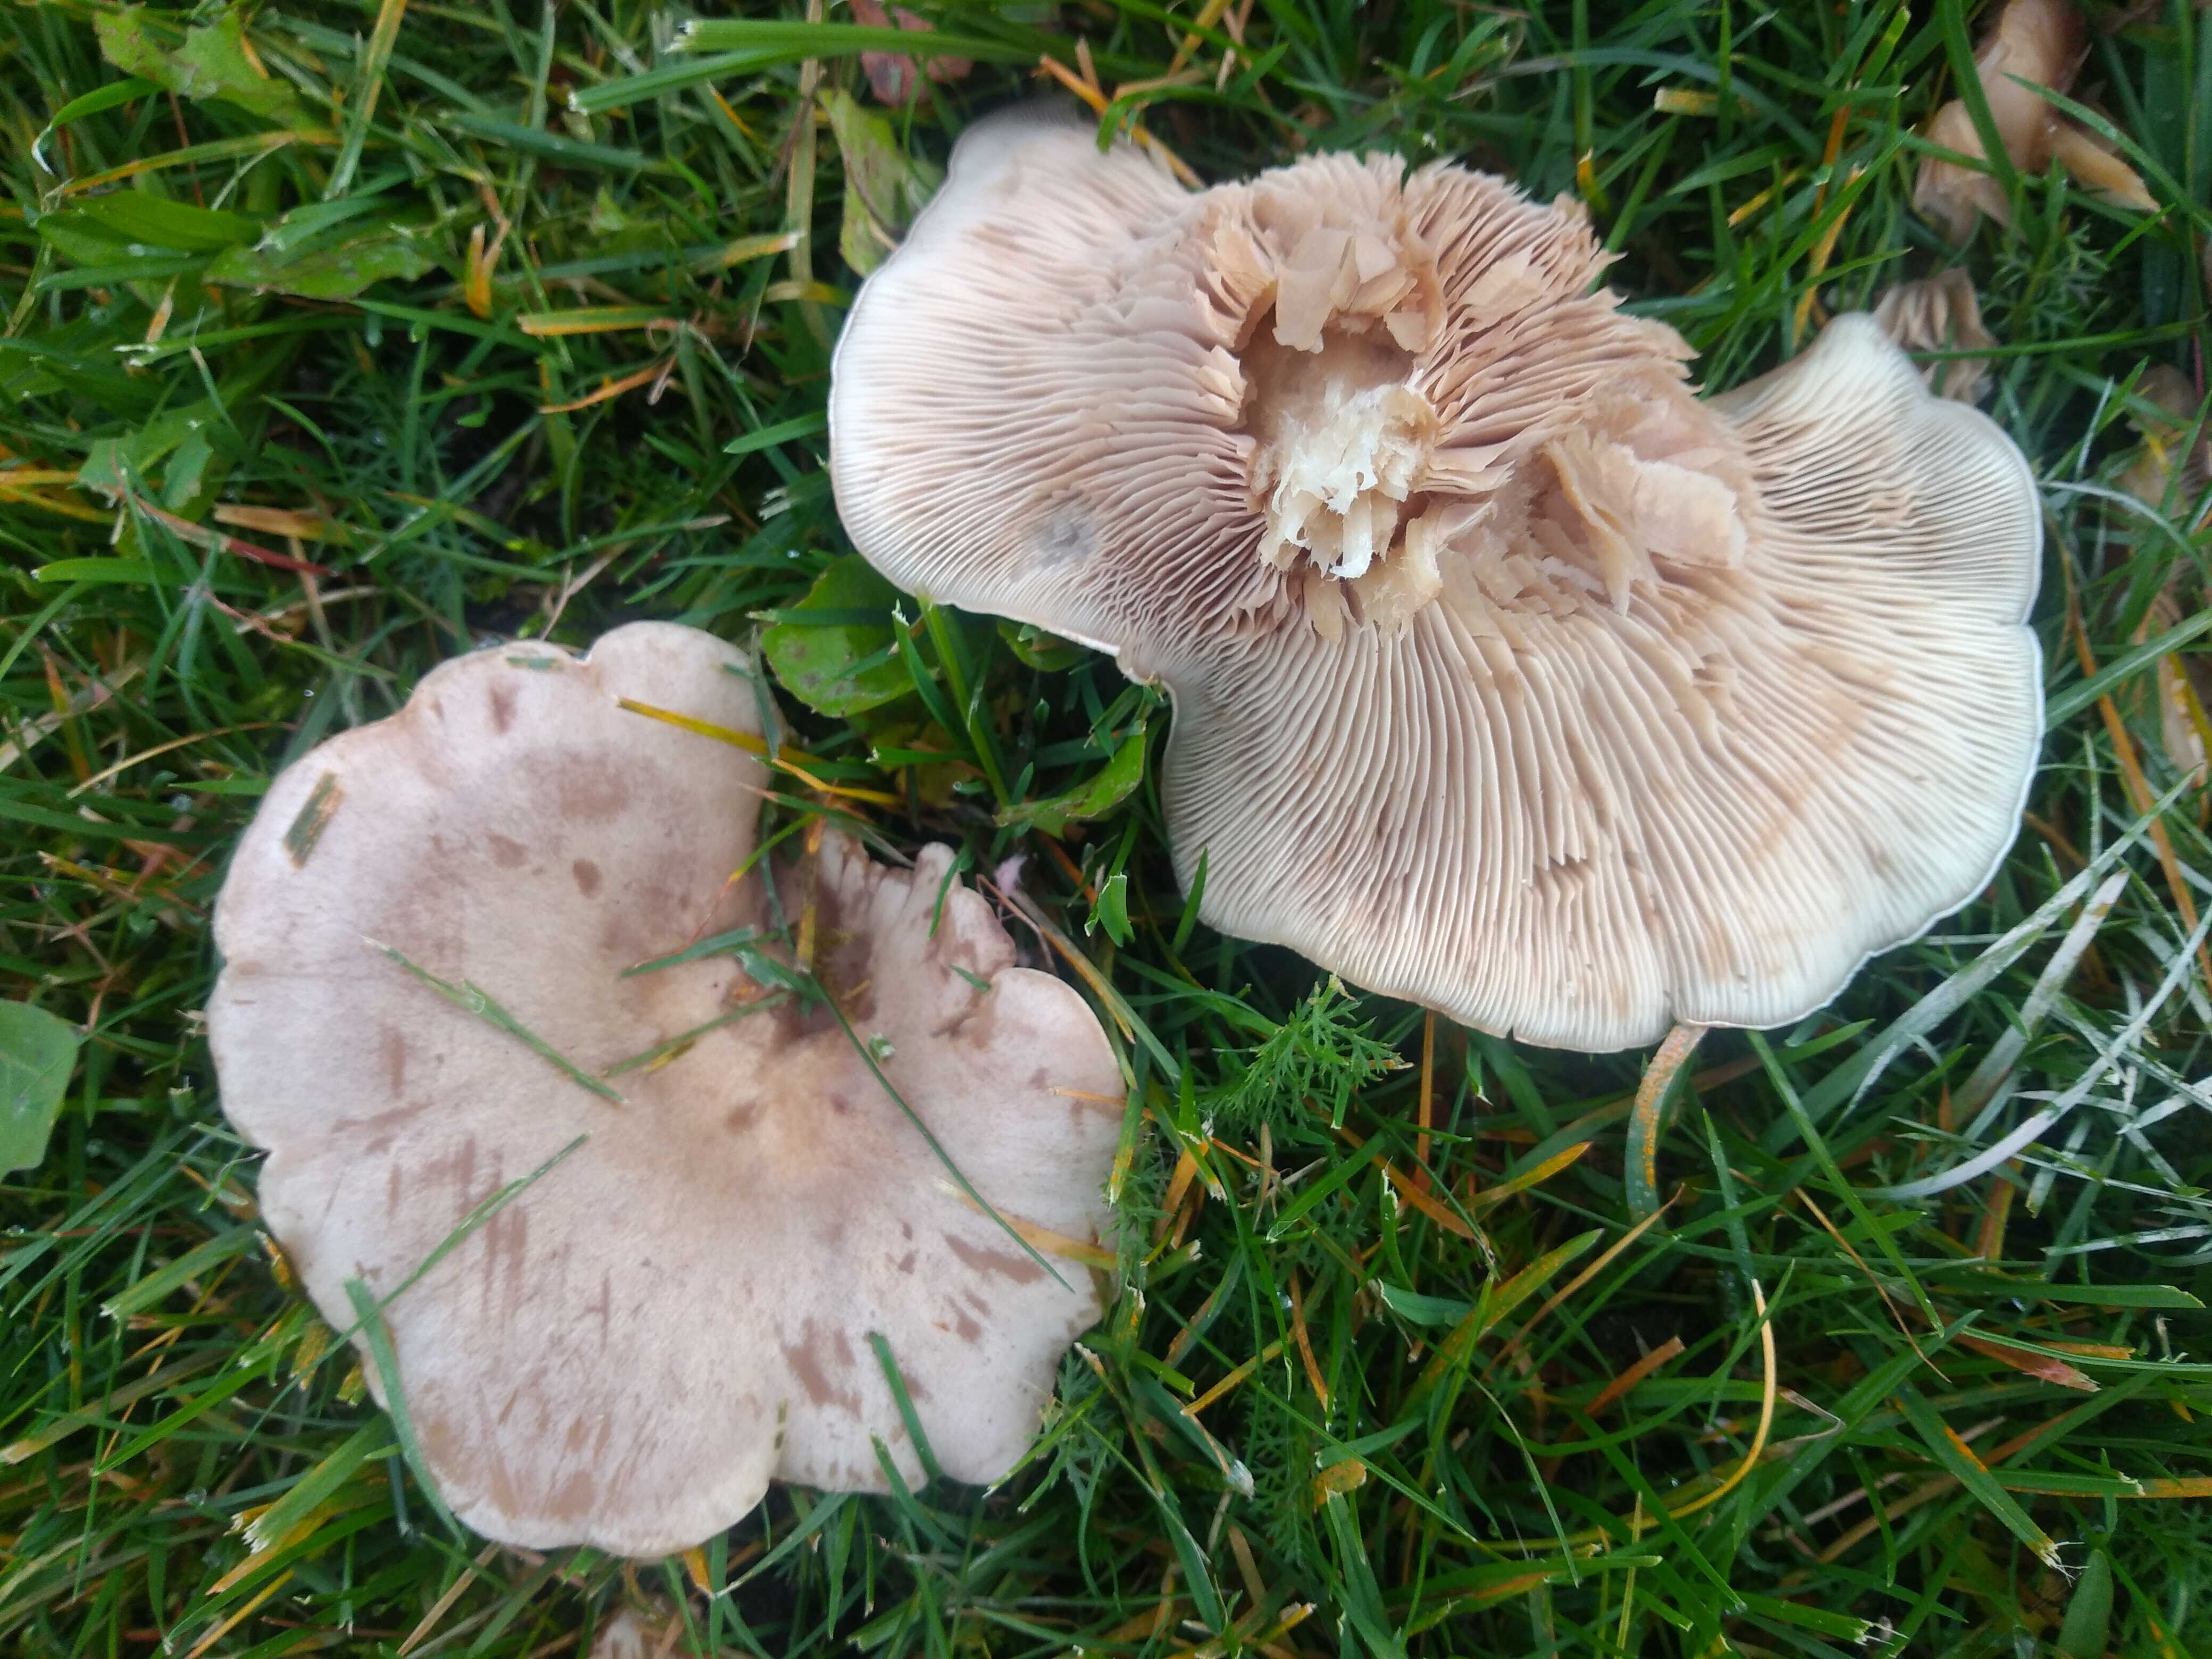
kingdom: Fungi
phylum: Basidiomycota
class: Agaricomycetes
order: Agaricales
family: Tricholomataceae
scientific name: Tricholomataceae
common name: ridderhatfamilien
